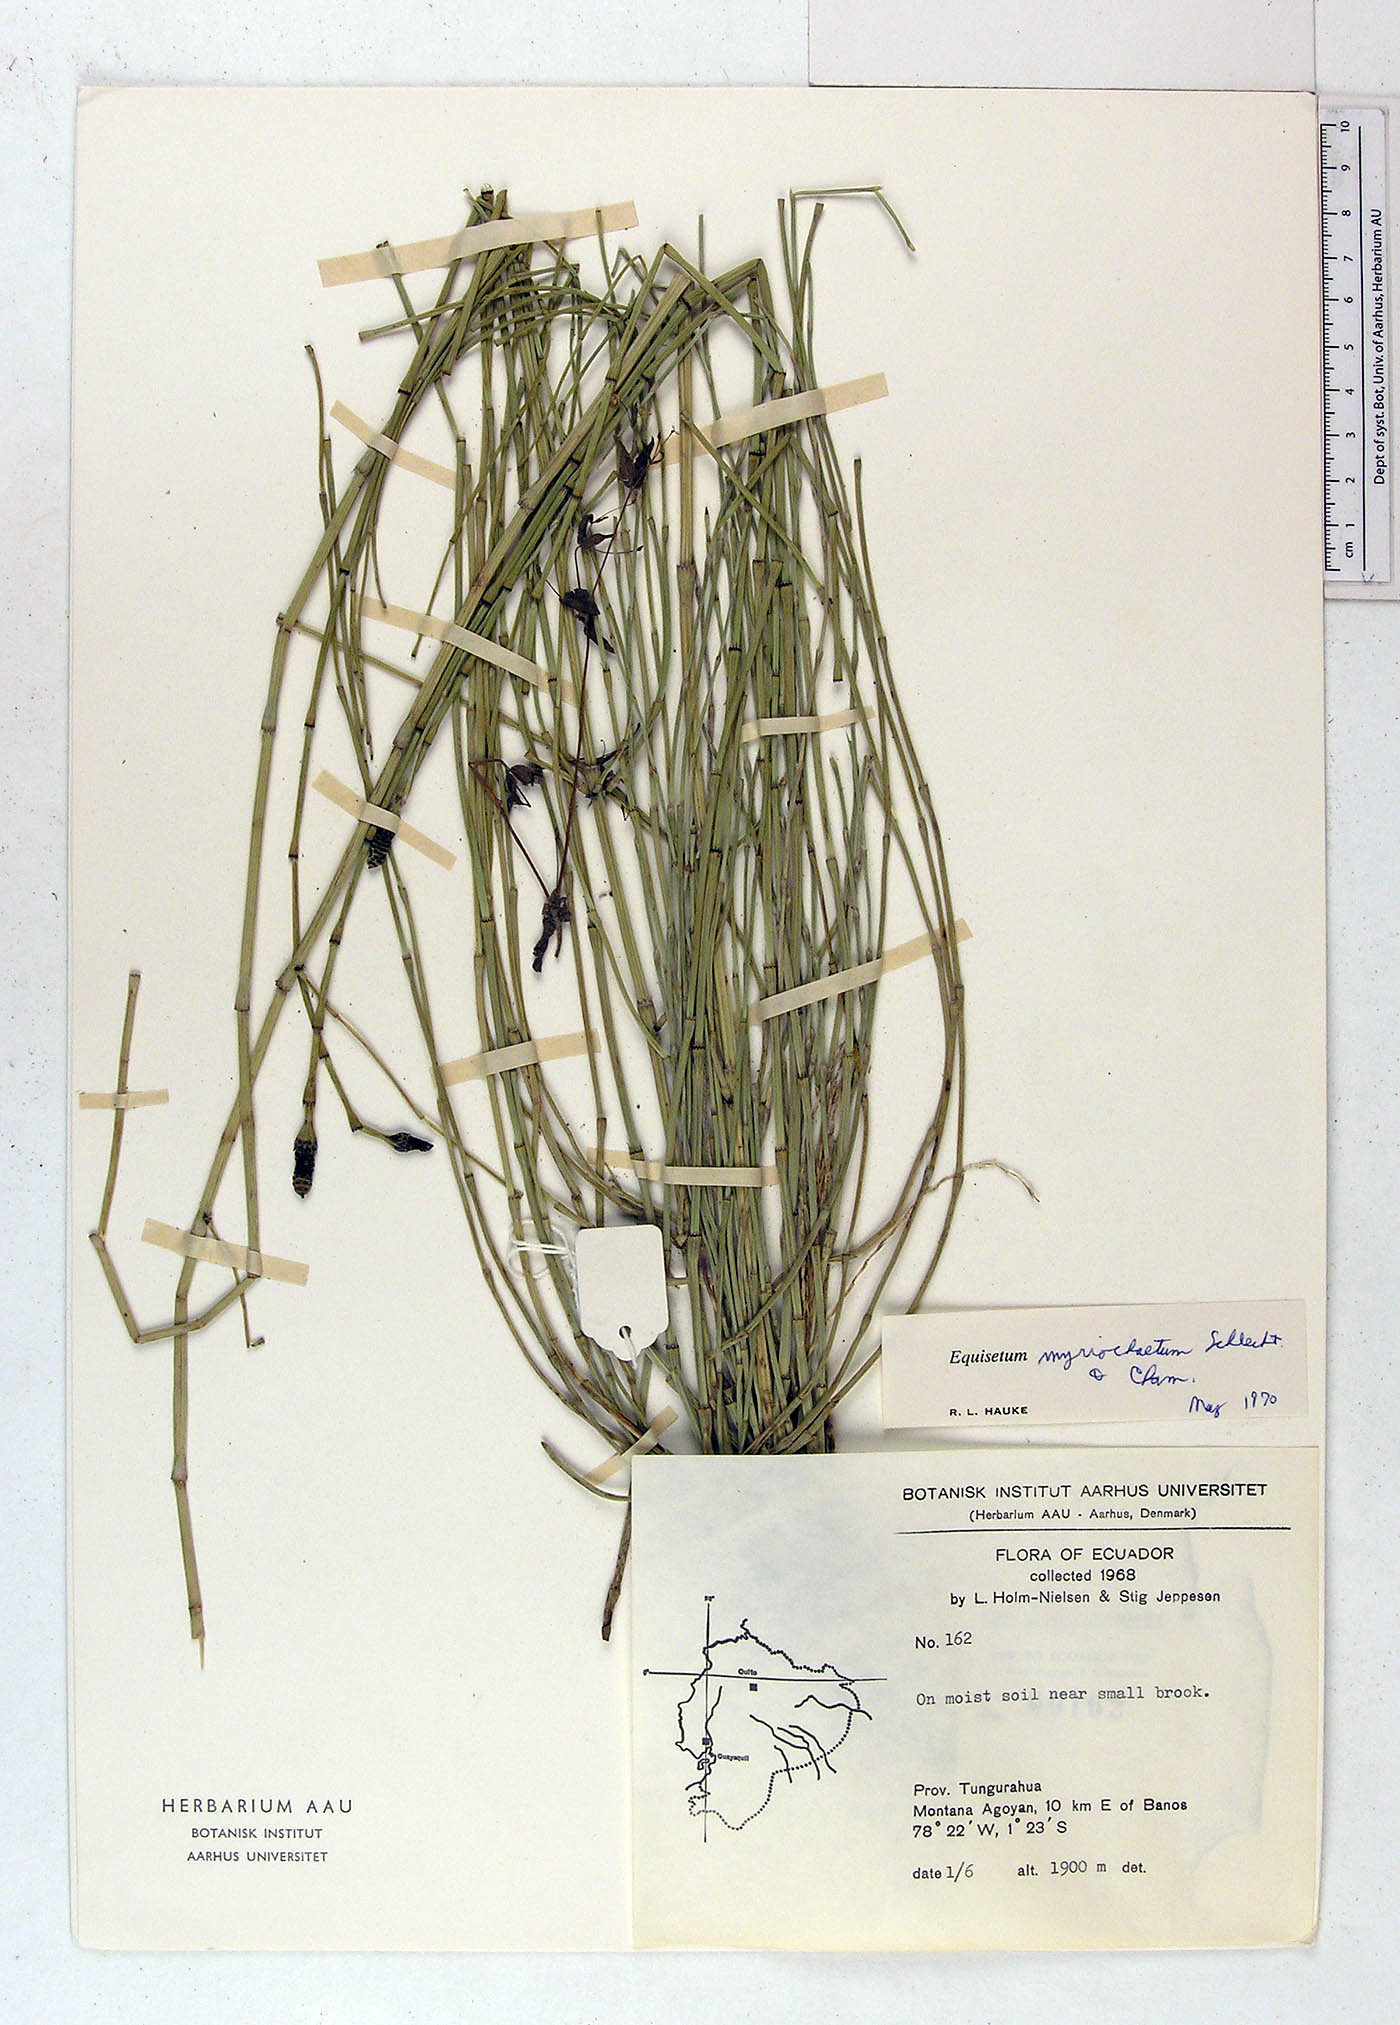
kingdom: Plantae
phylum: Tracheophyta
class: Polypodiopsida
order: Equisetales
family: Equisetaceae
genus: Equisetum
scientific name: Equisetum myriochaetum
